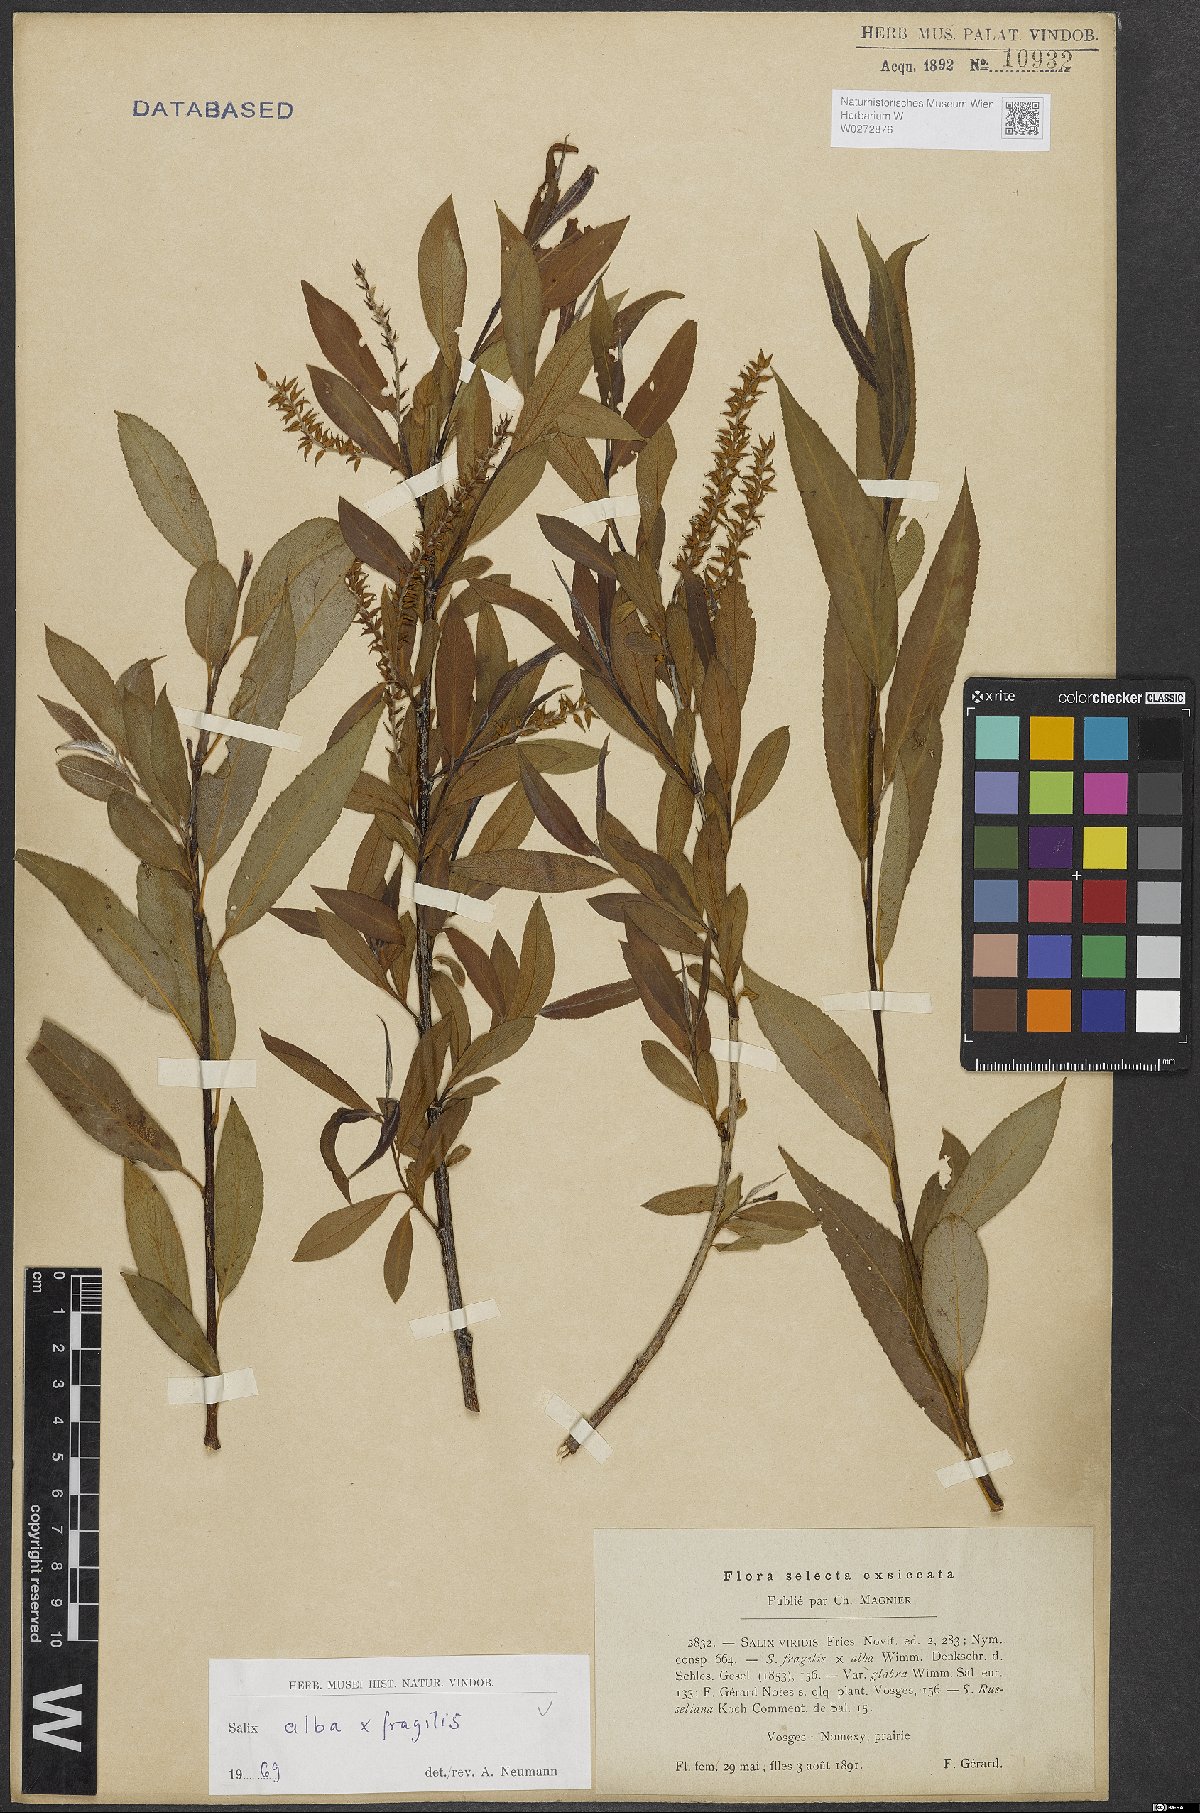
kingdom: Plantae
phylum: Tracheophyta
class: Magnoliopsida
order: Malpighiales
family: Salicaceae
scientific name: Salicaceae
